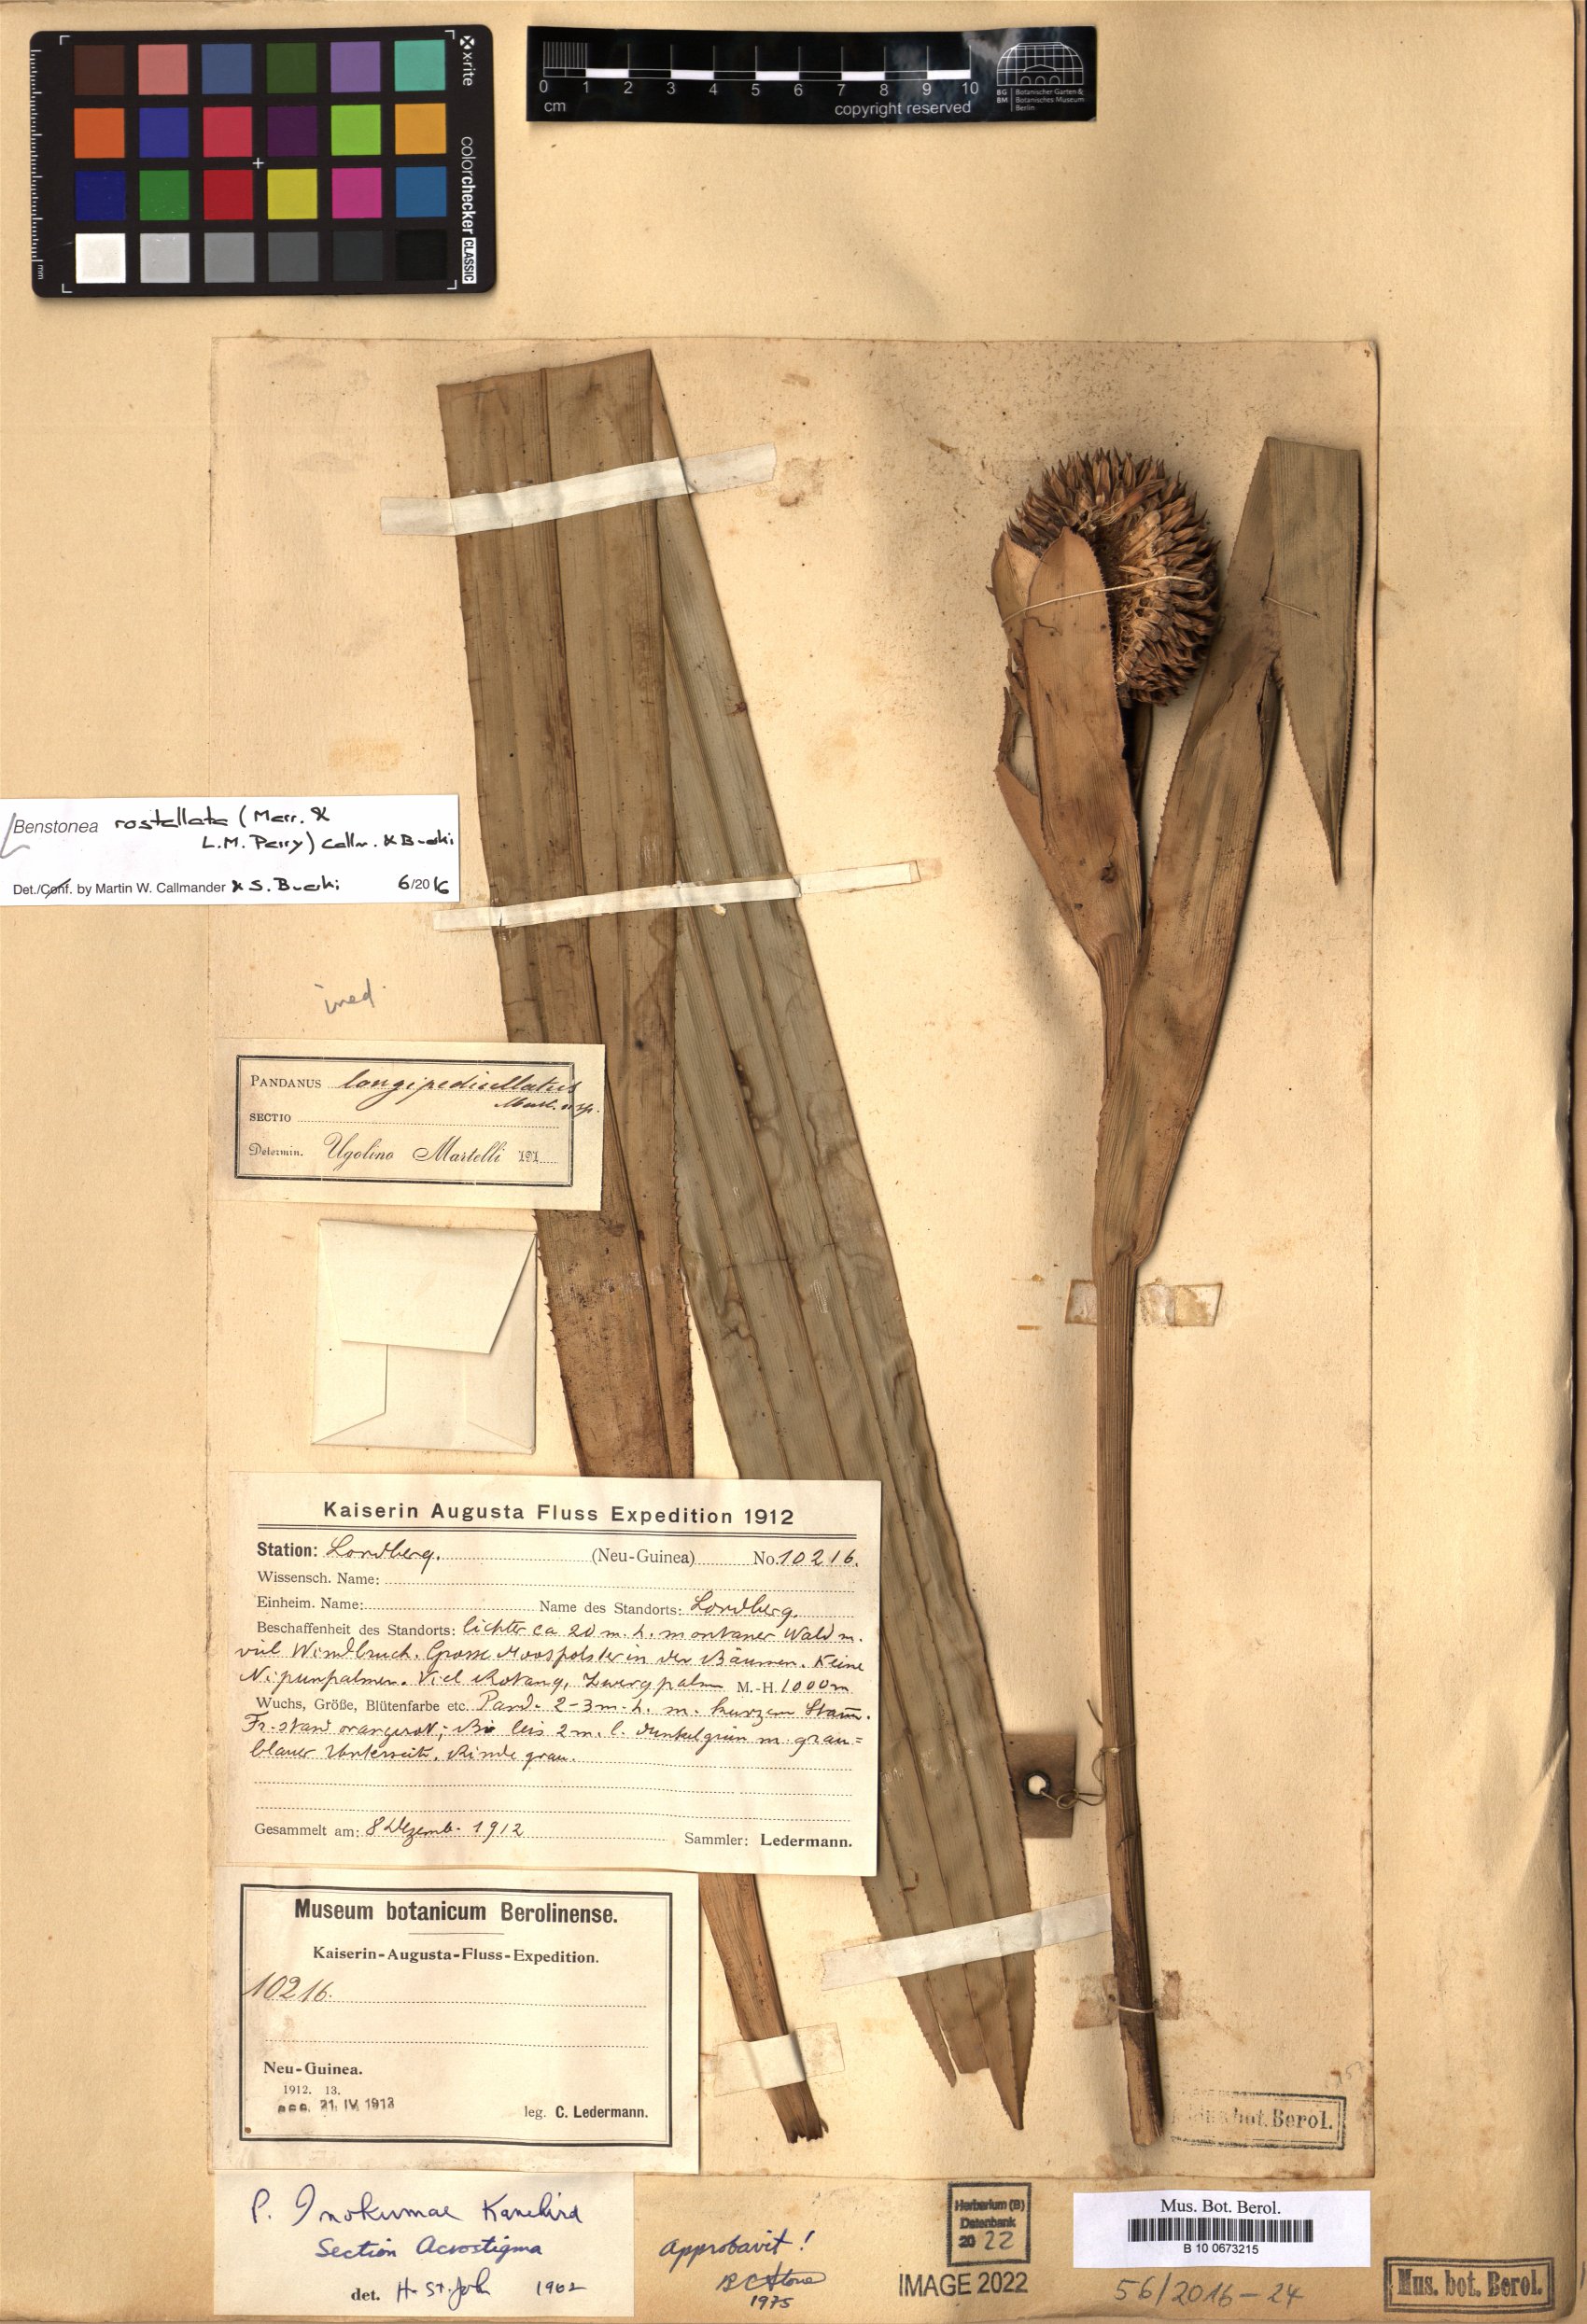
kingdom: Plantae
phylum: Tracheophyta
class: Liliopsida
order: Pandanales
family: Pandanaceae
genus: Benstonea
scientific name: Benstonea rostellata
